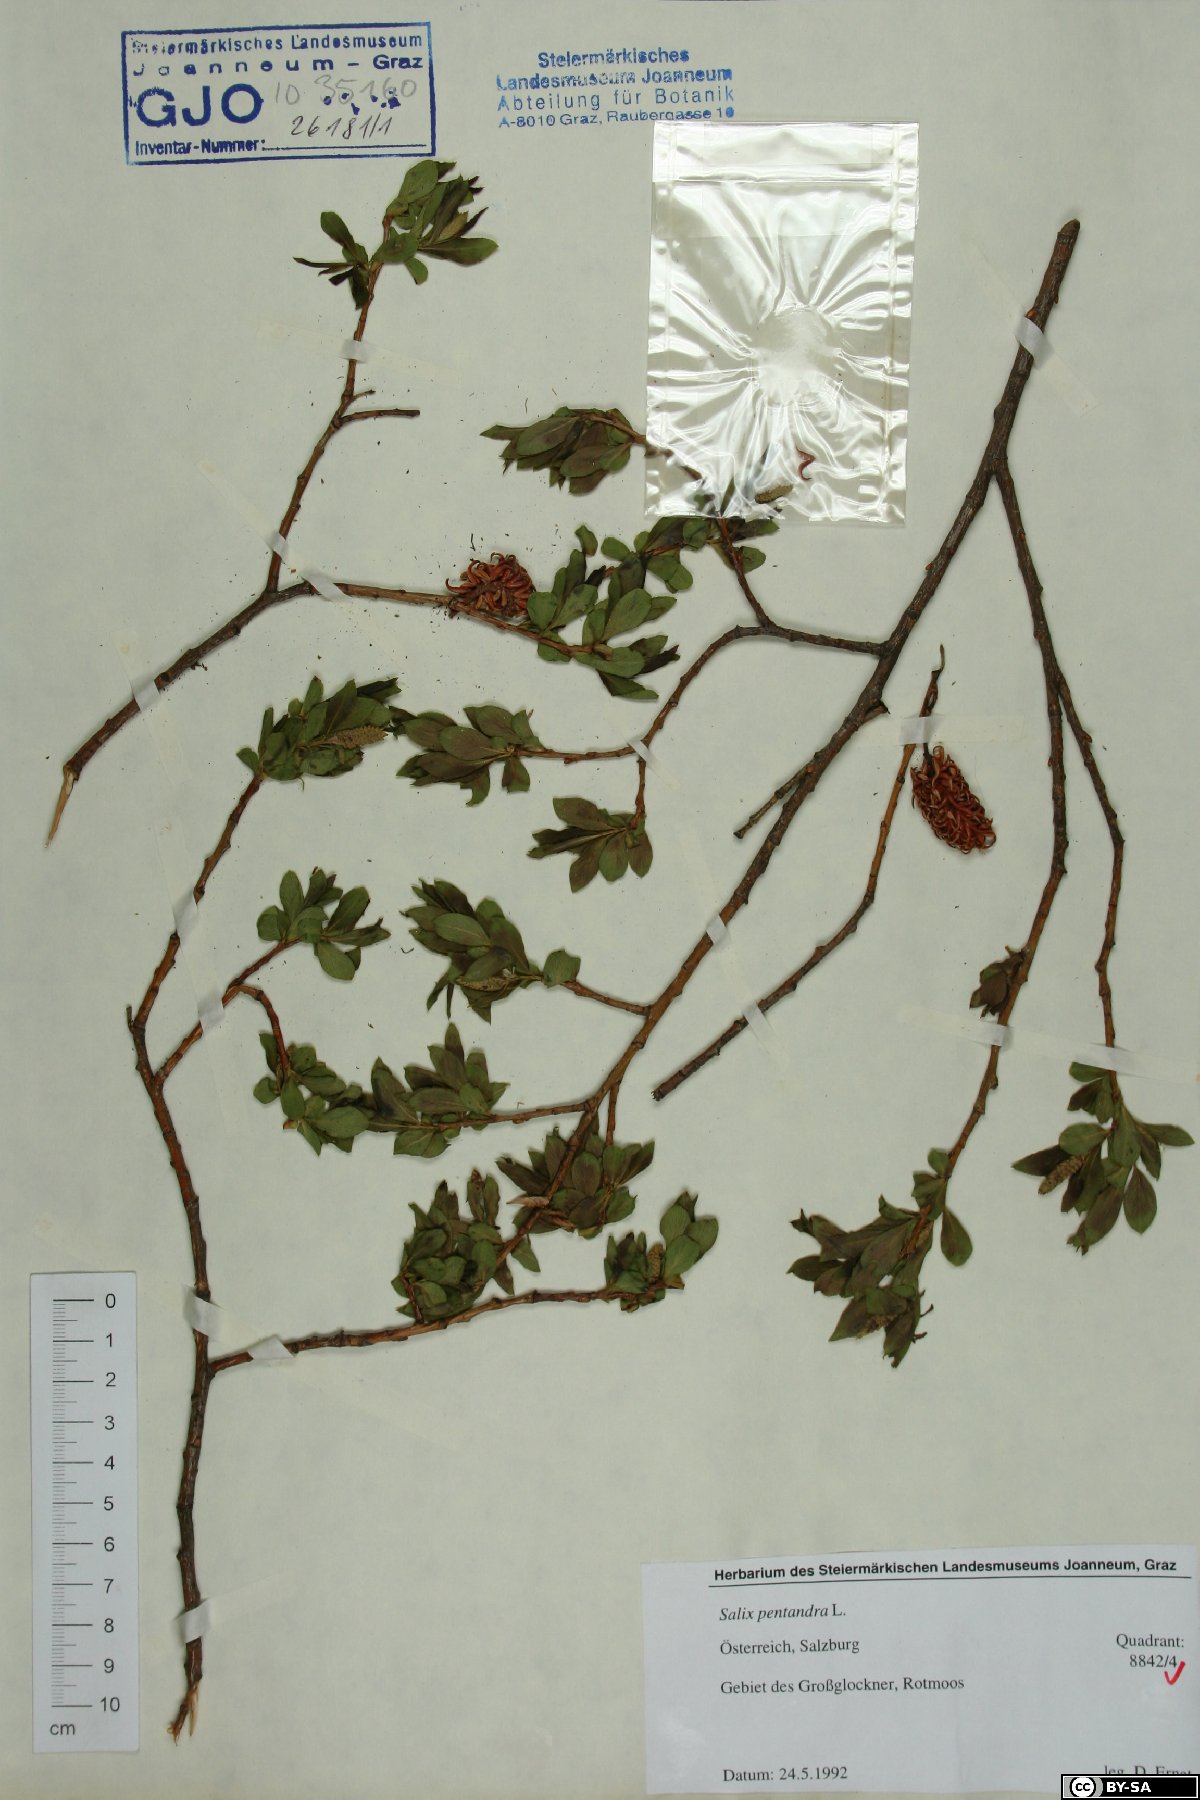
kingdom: Plantae
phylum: Tracheophyta
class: Magnoliopsida
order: Malpighiales
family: Salicaceae
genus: Salix
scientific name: Salix pentandra
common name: Bay willow
